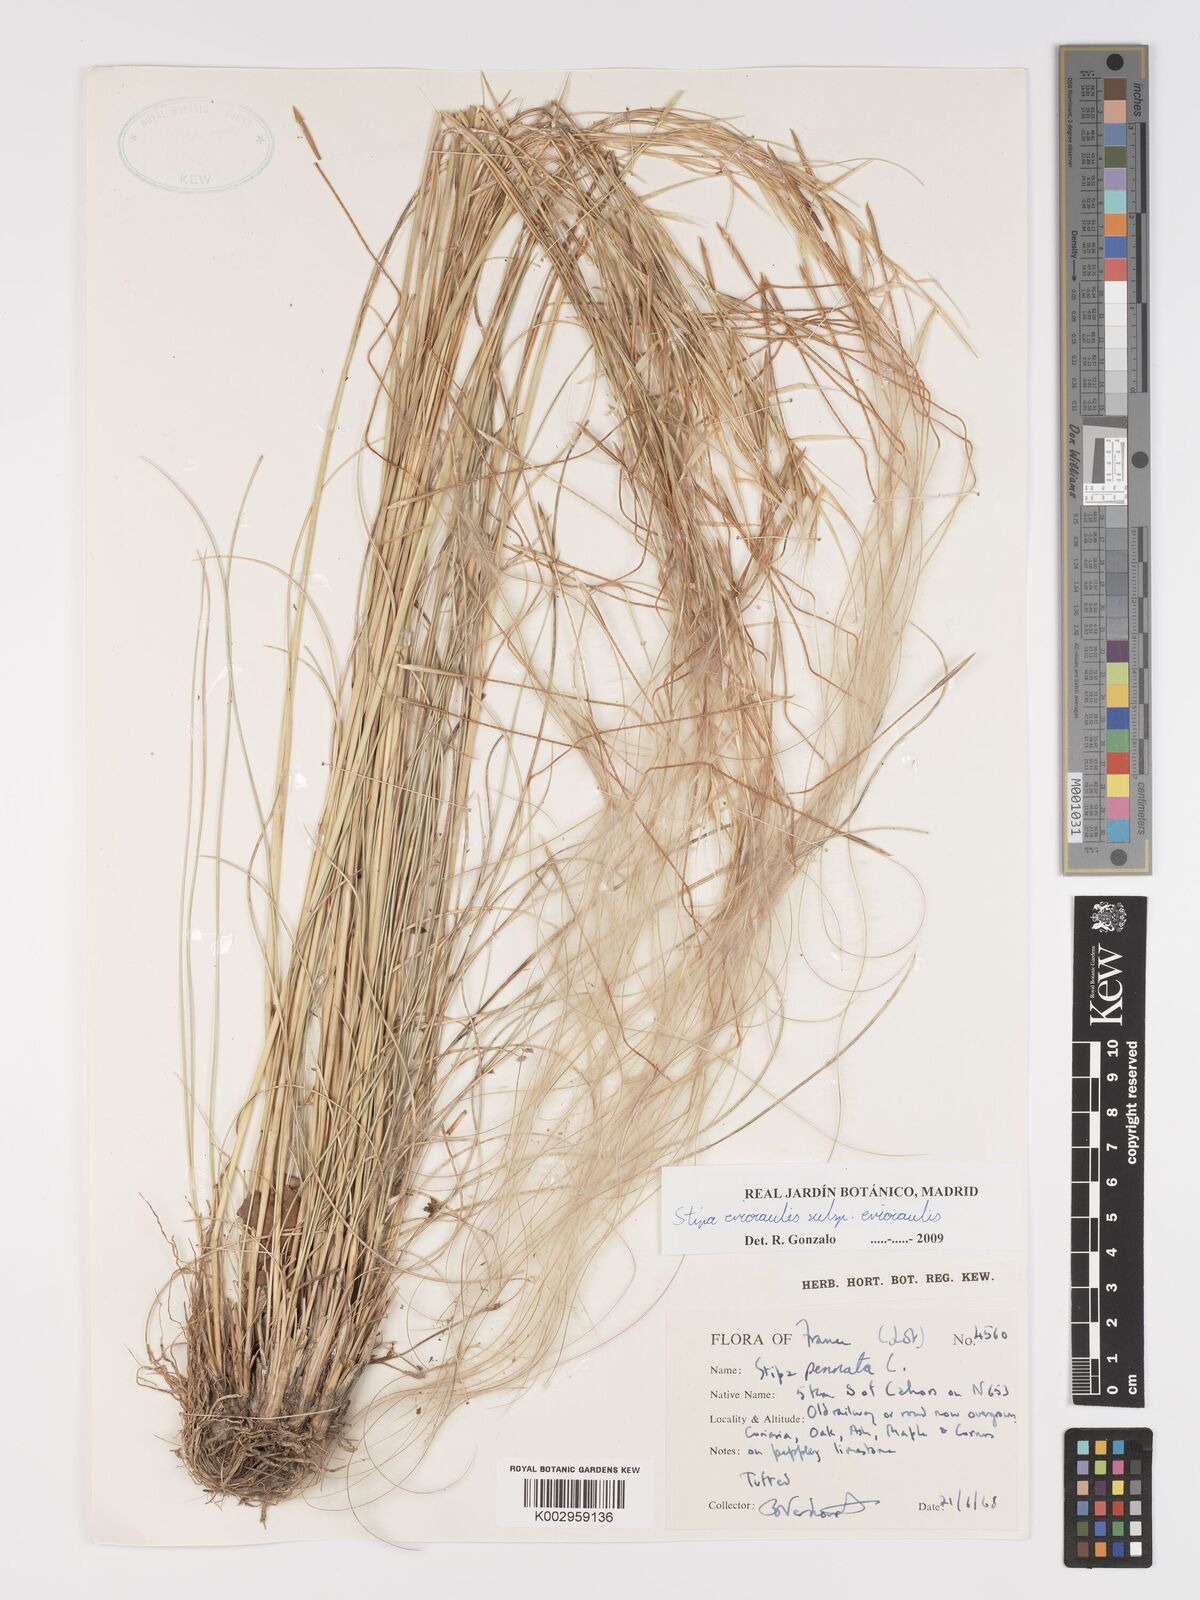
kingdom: Plantae
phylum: Tracheophyta
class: Liliopsida
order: Poales
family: Poaceae
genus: Stipa
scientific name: Stipa pennata
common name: European feather grass
